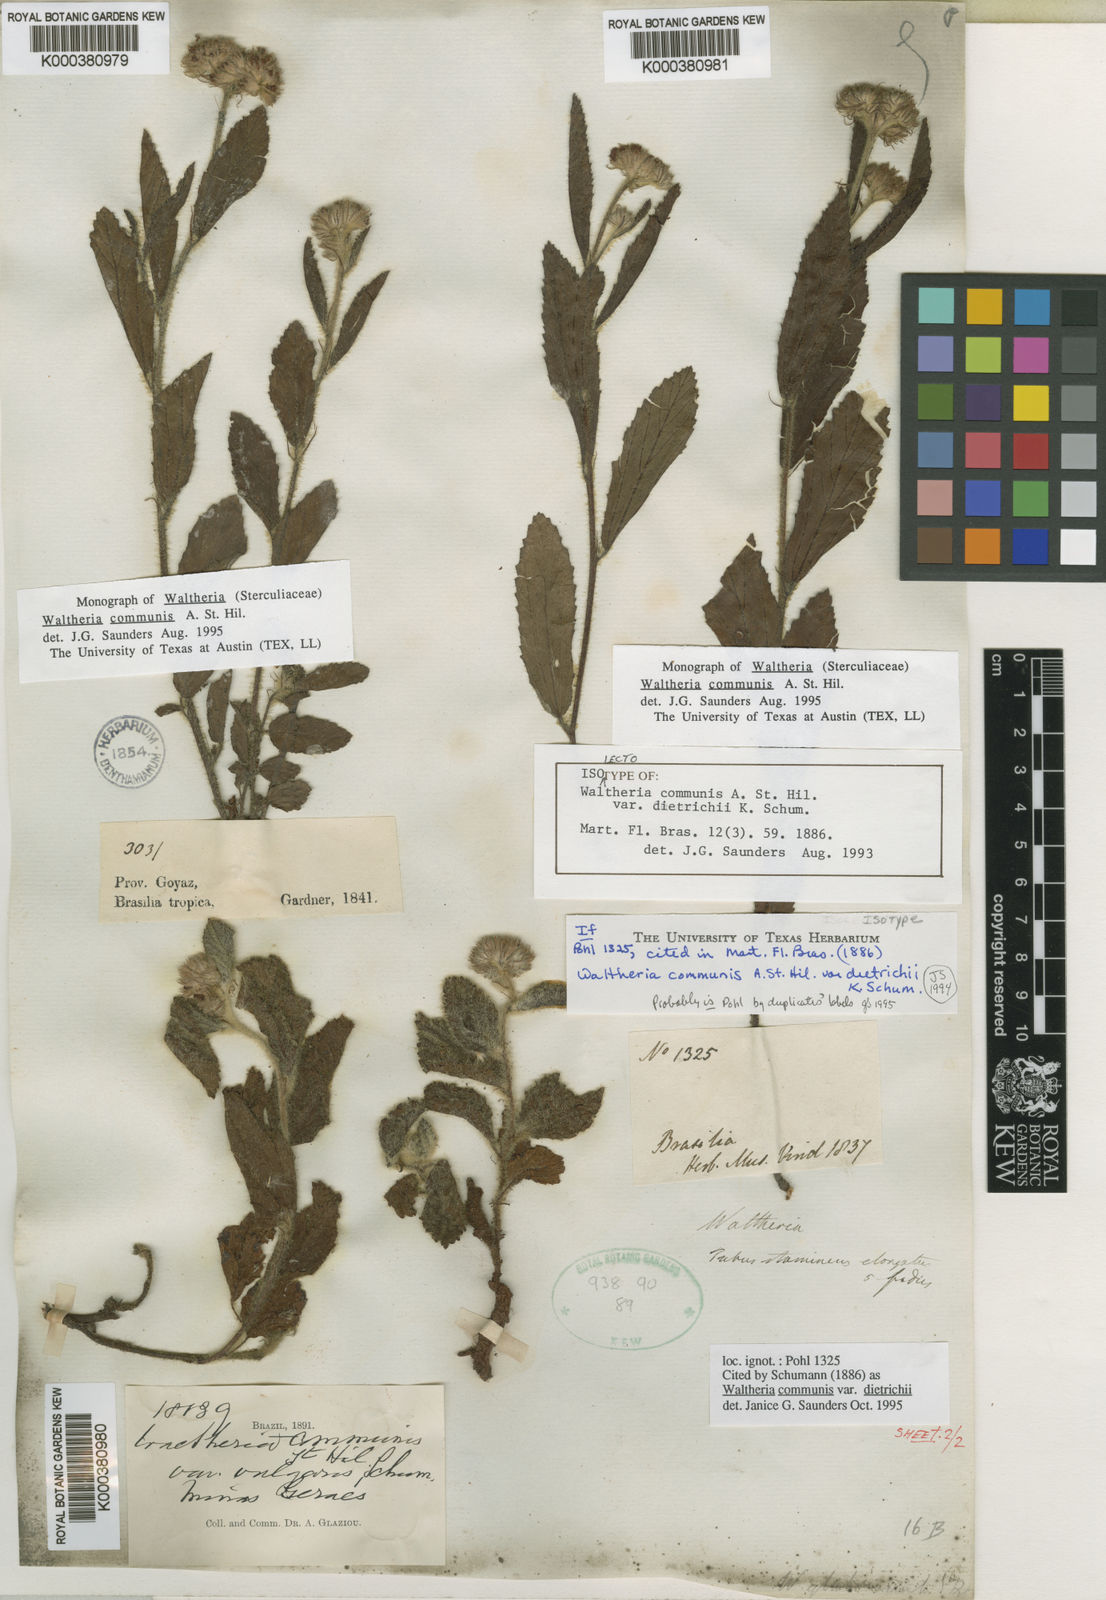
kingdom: Plantae
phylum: Tracheophyta
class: Magnoliopsida
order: Malvales
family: Malvaceae
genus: Waltheria
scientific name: Waltheria communis
